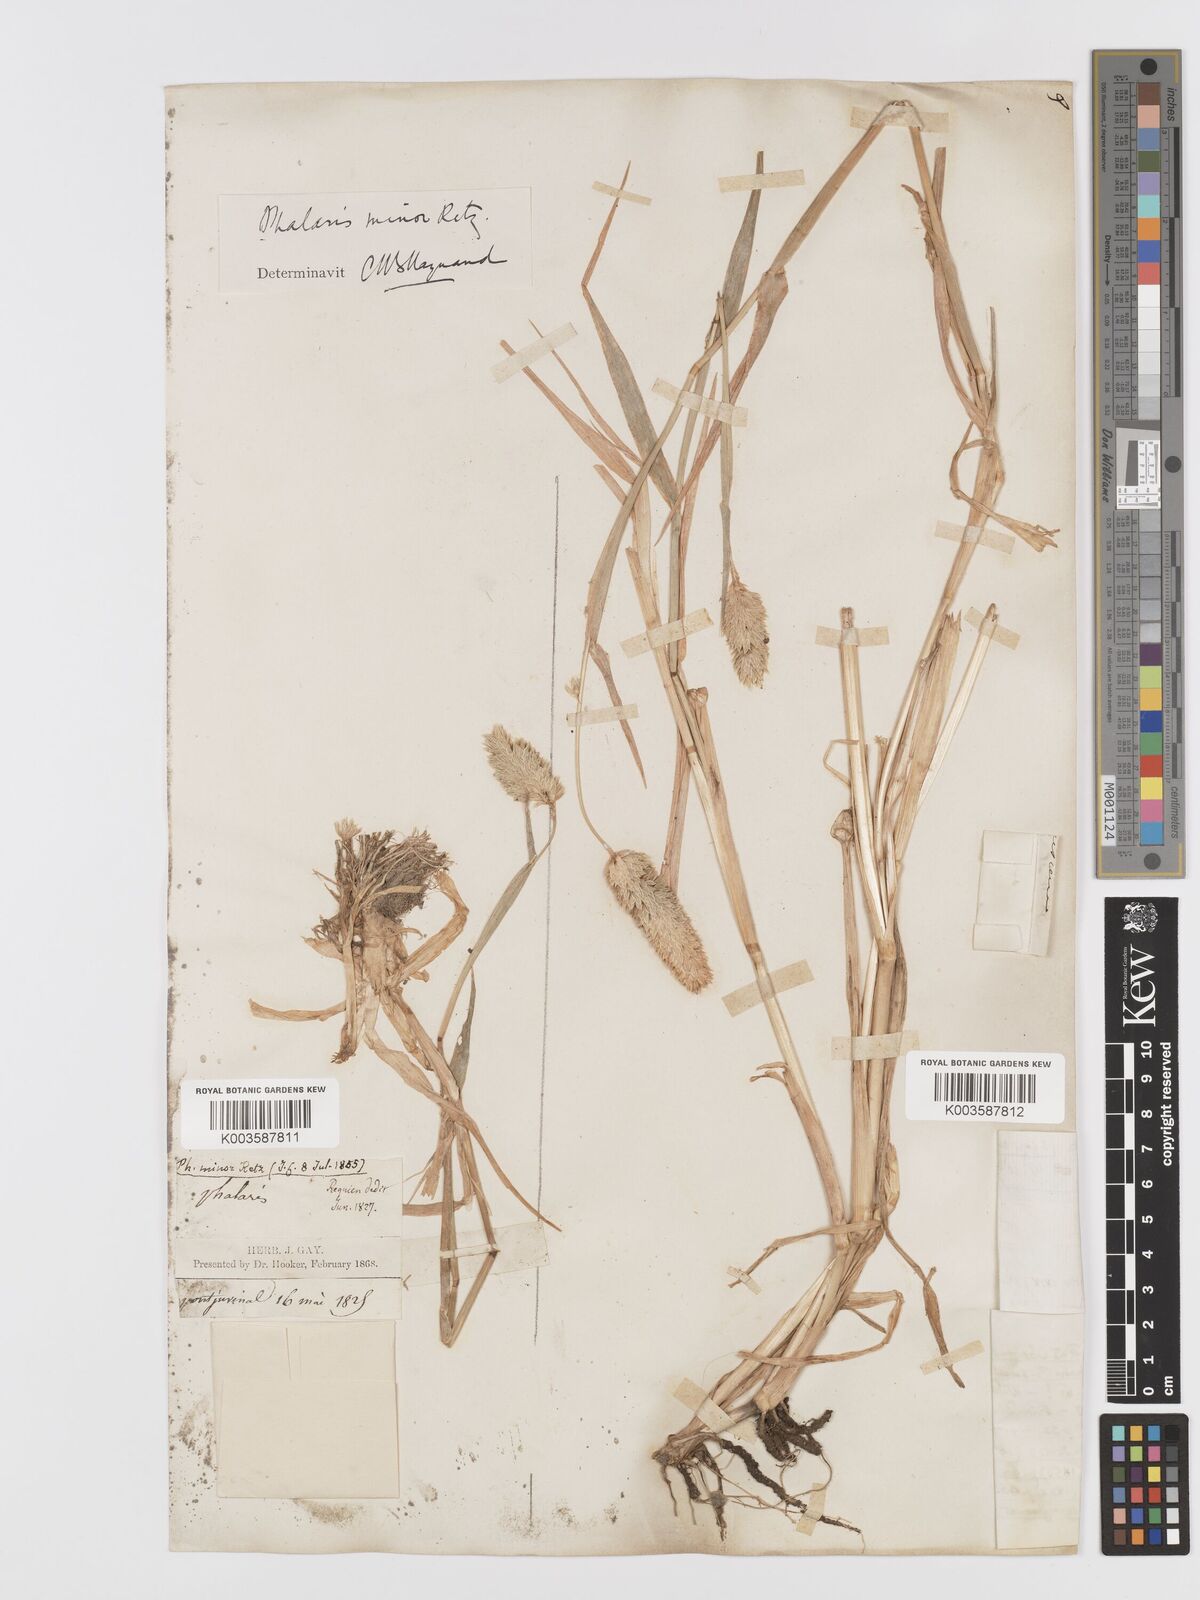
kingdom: Plantae
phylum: Tracheophyta
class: Liliopsida
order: Poales
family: Poaceae
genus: Phalaris
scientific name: Phalaris minor
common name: Littleseed canarygrass
